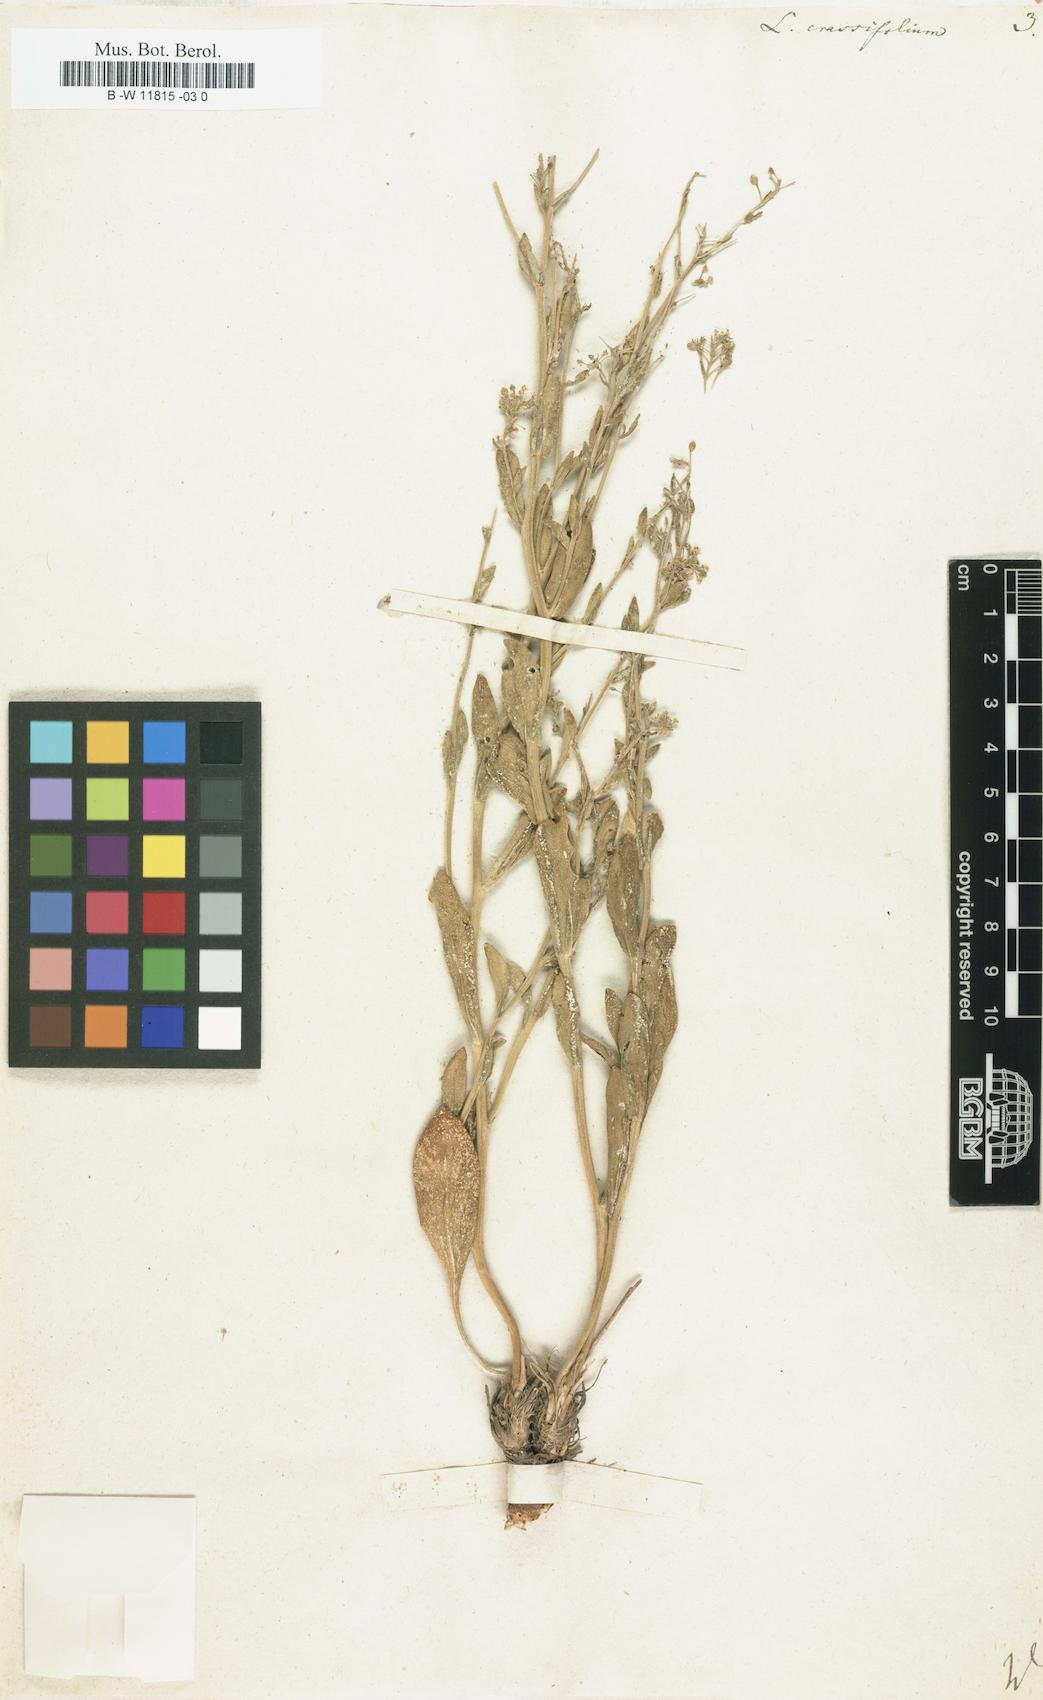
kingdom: Plantae
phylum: Tracheophyta
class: Magnoliopsida
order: Brassicales
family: Brassicaceae
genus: Lepidium
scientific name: Lepidium cartilagineum
